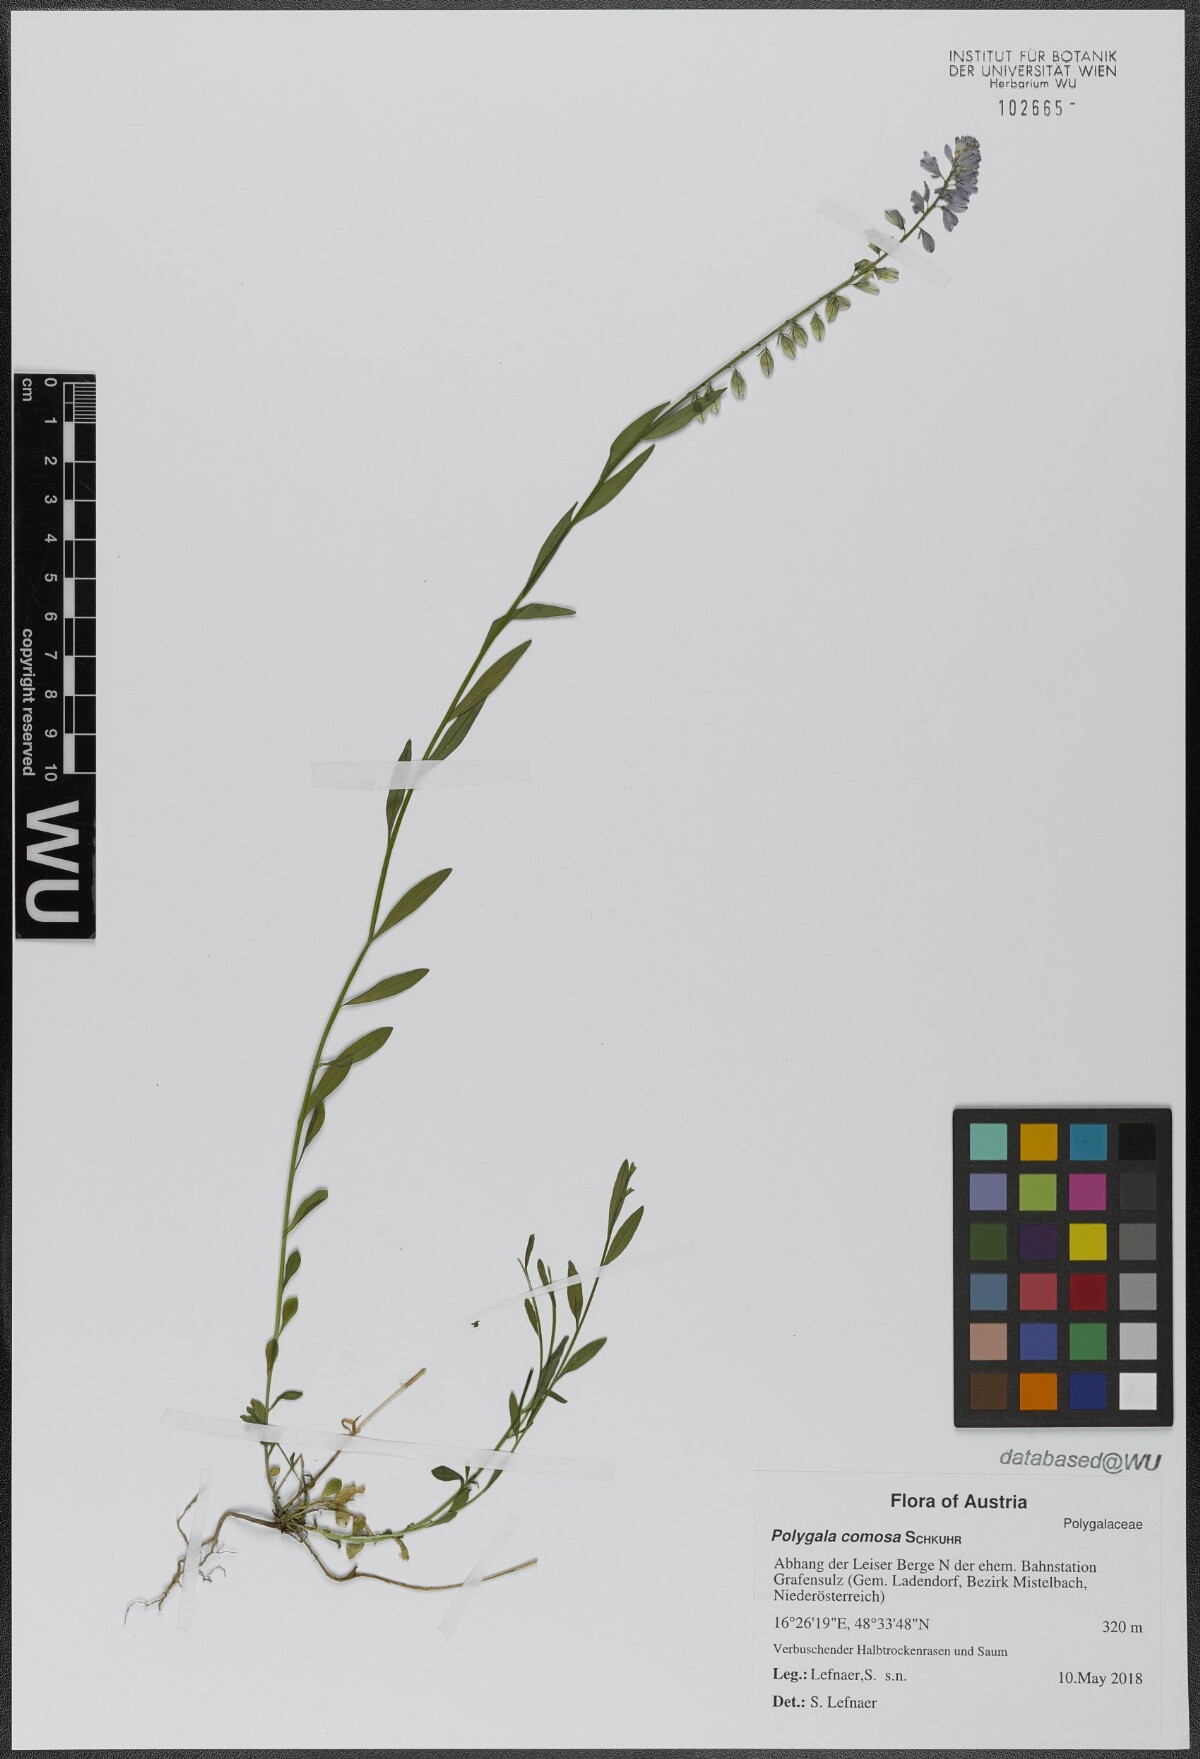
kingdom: Plantae
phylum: Tracheophyta
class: Magnoliopsida
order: Fabales
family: Polygalaceae
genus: Polygala
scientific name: Polygala comosa
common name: Tufted milkwort
